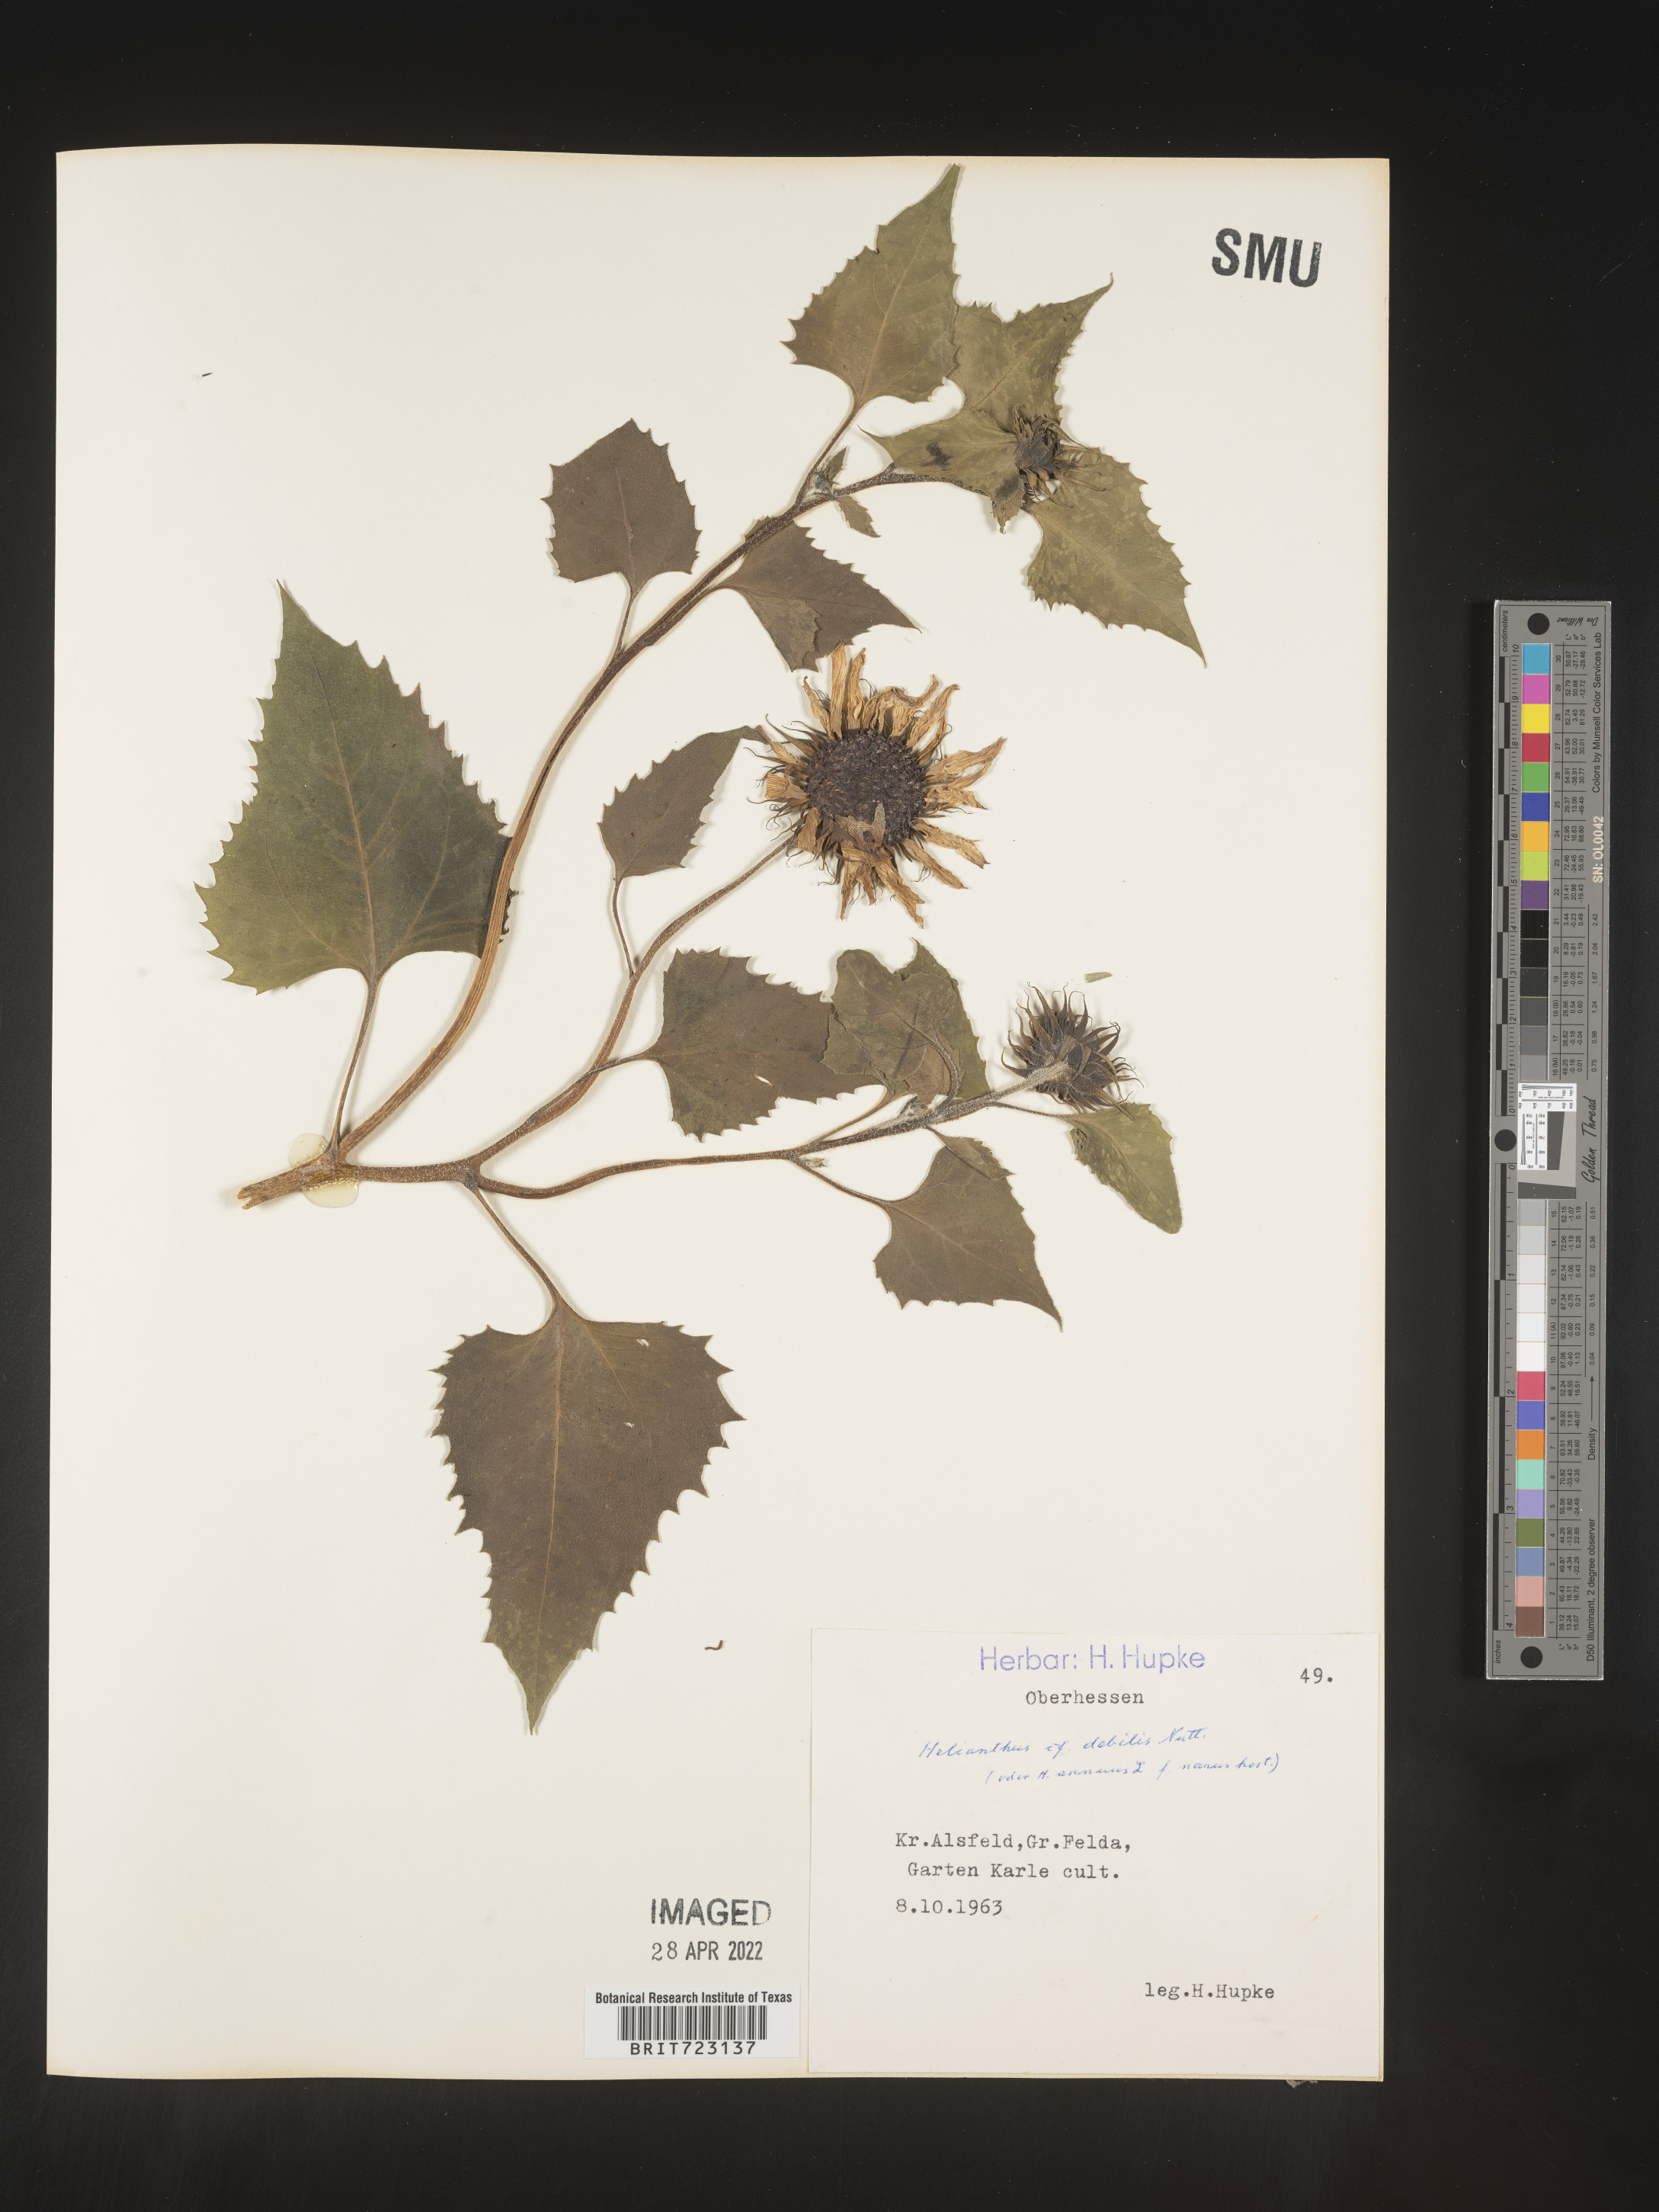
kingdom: Plantae
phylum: Tracheophyta
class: Magnoliopsida
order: Asterales
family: Asteraceae
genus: Helianthus
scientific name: Helianthus
